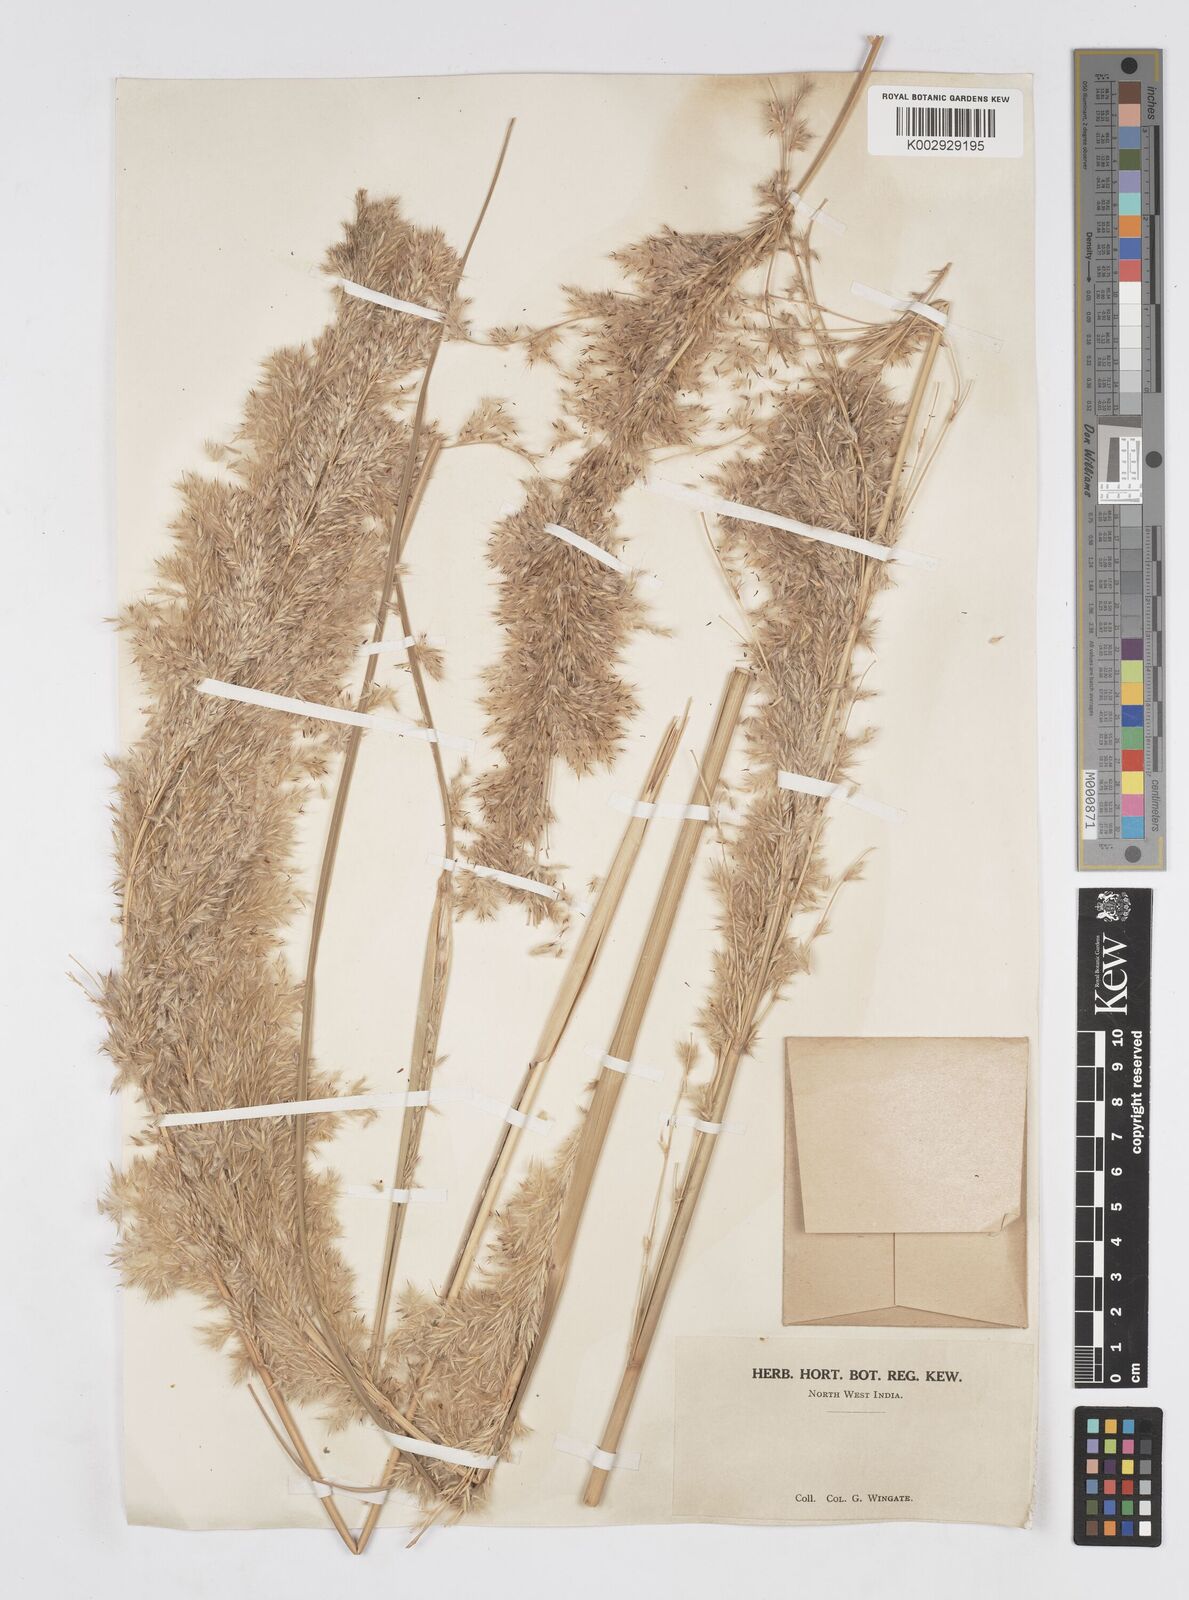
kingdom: Plantae
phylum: Tracheophyta
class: Liliopsida
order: Poales
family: Poaceae
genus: Tripidium
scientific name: Tripidium ravennae
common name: Ravenna grass
